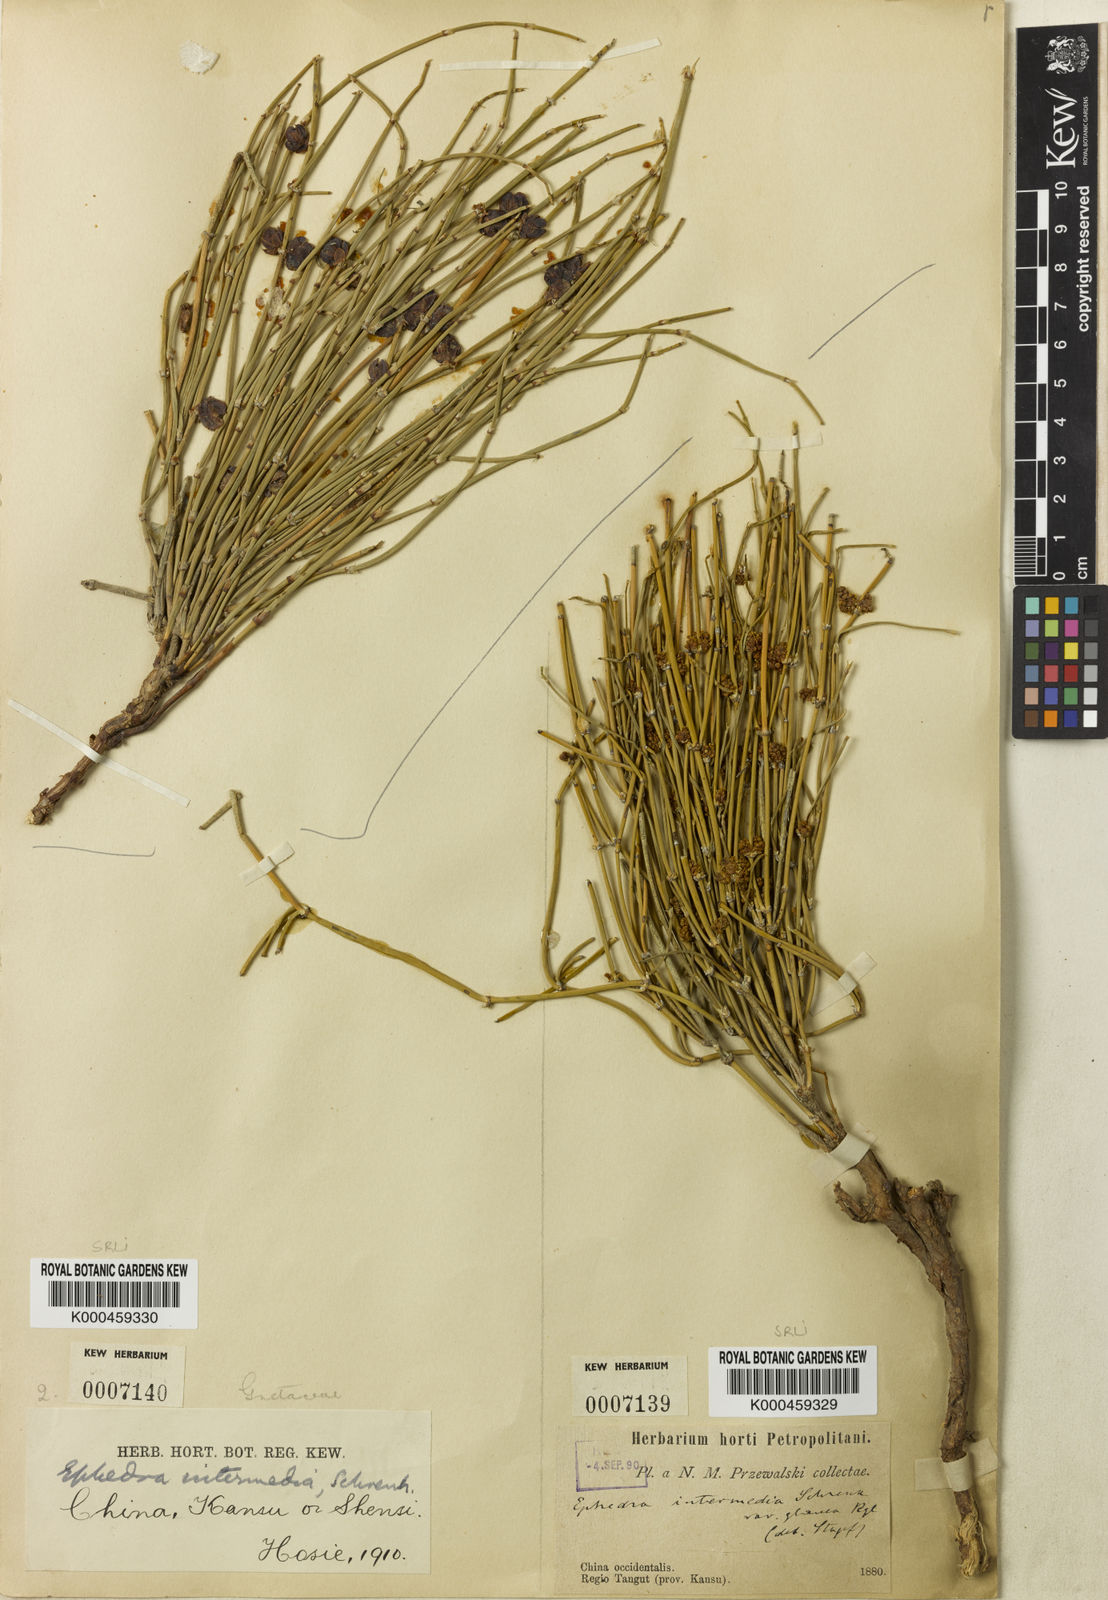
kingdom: Plantae
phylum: Tracheophyta
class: Gnetopsida
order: Ephedrales
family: Ephedraceae
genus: Ephedra
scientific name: Ephedra intermedia
